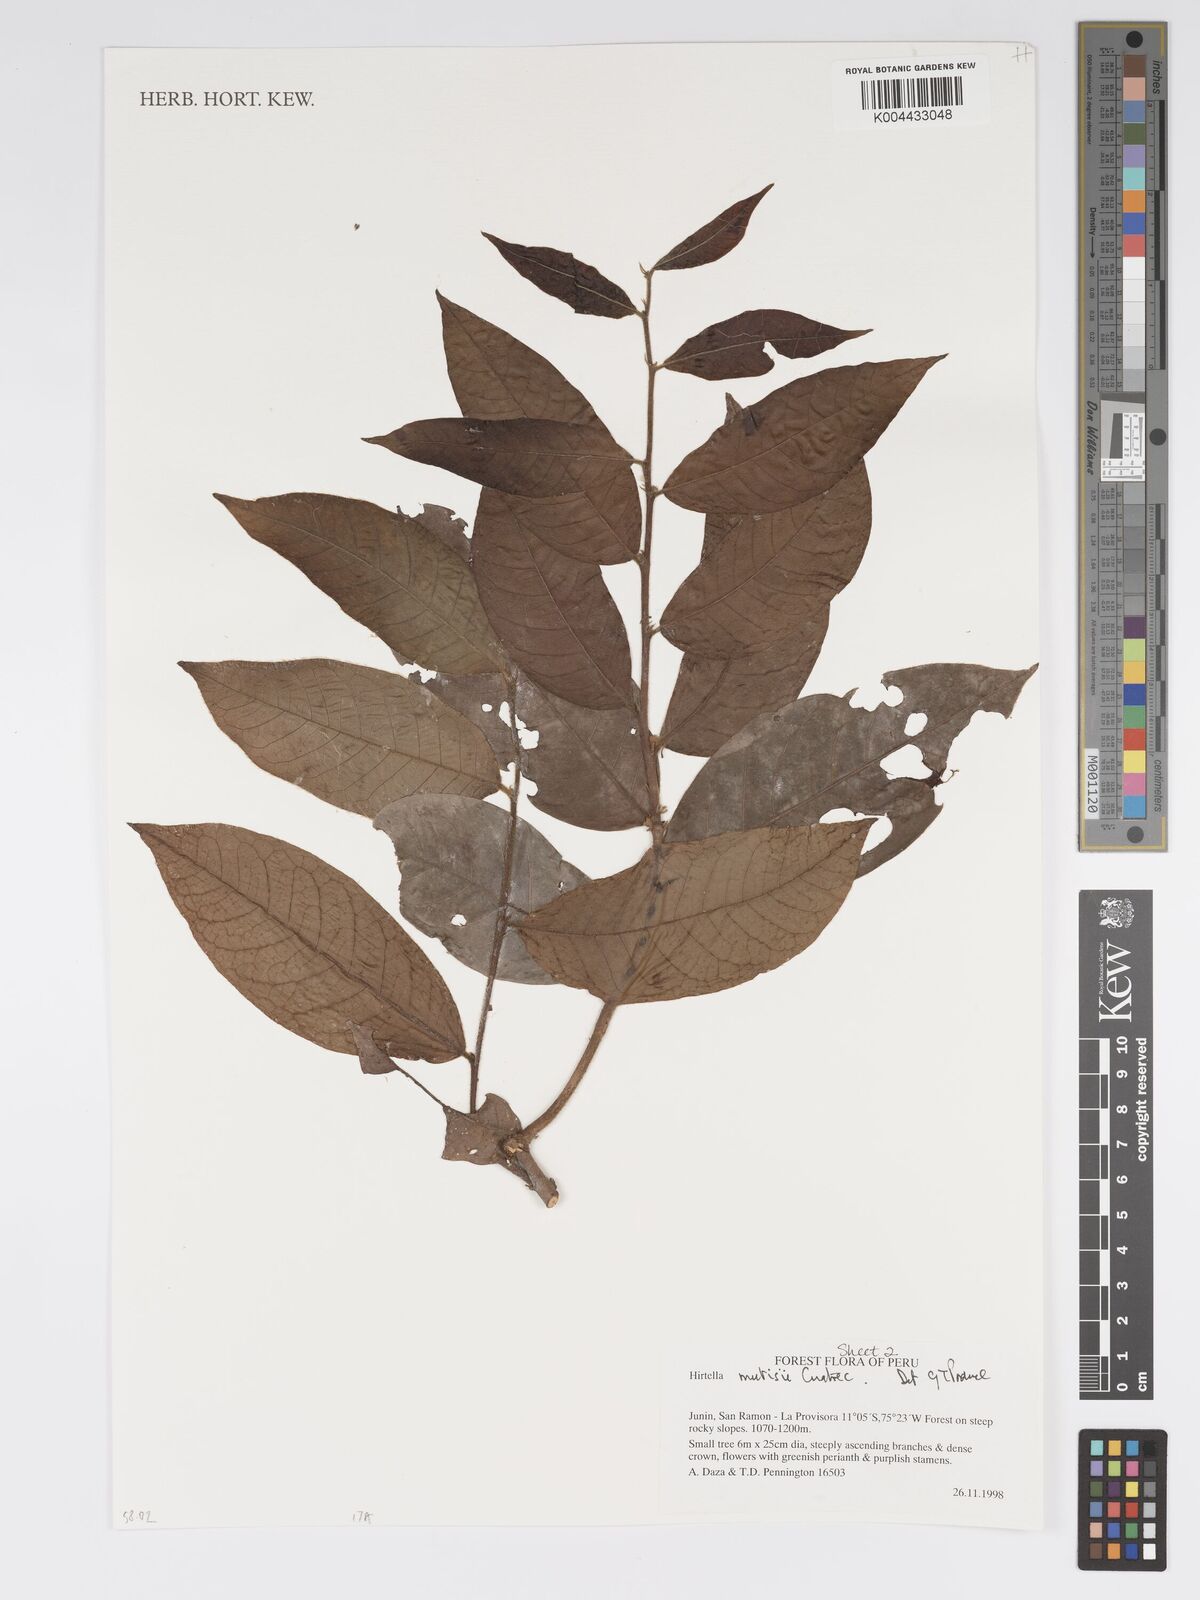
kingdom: Plantae
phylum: Tracheophyta
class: Magnoliopsida
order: Malpighiales
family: Chrysobalanaceae
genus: Hirtella
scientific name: Hirtella mutisii
